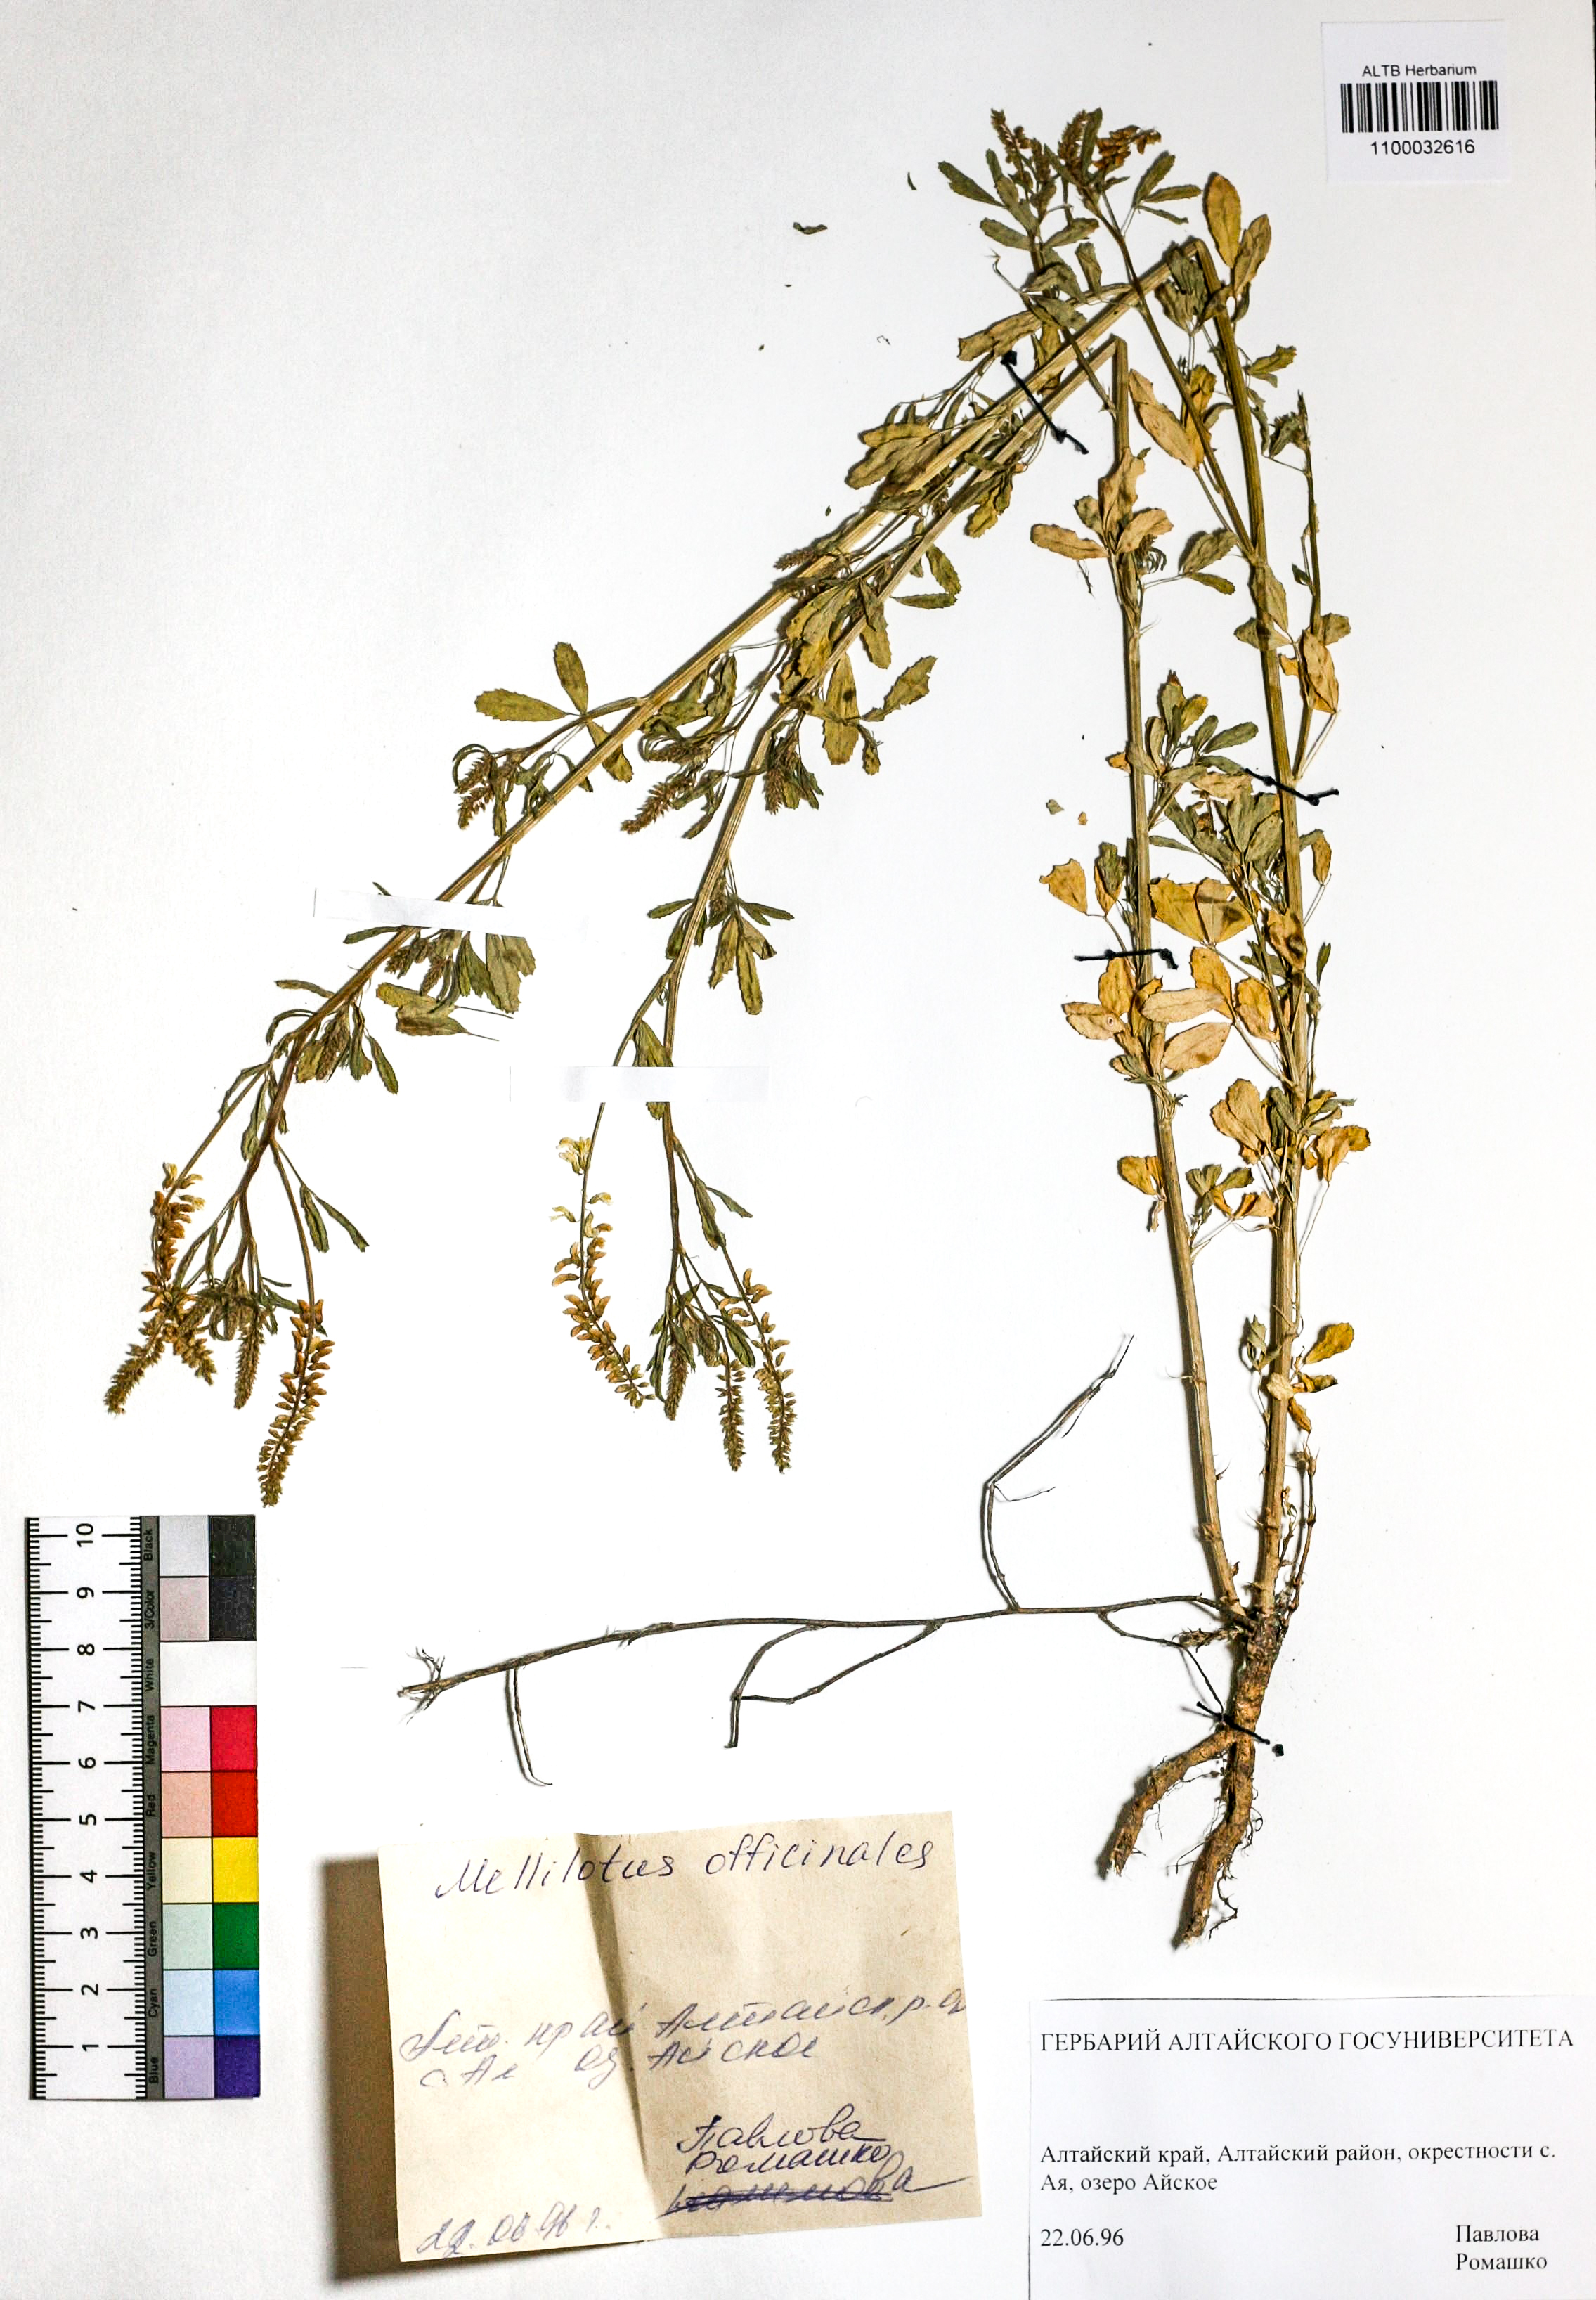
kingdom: Plantae
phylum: Tracheophyta
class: Magnoliopsida
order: Fabales
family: Fabaceae
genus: Melilotus
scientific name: Melilotus officinalis
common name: Sweetclover
